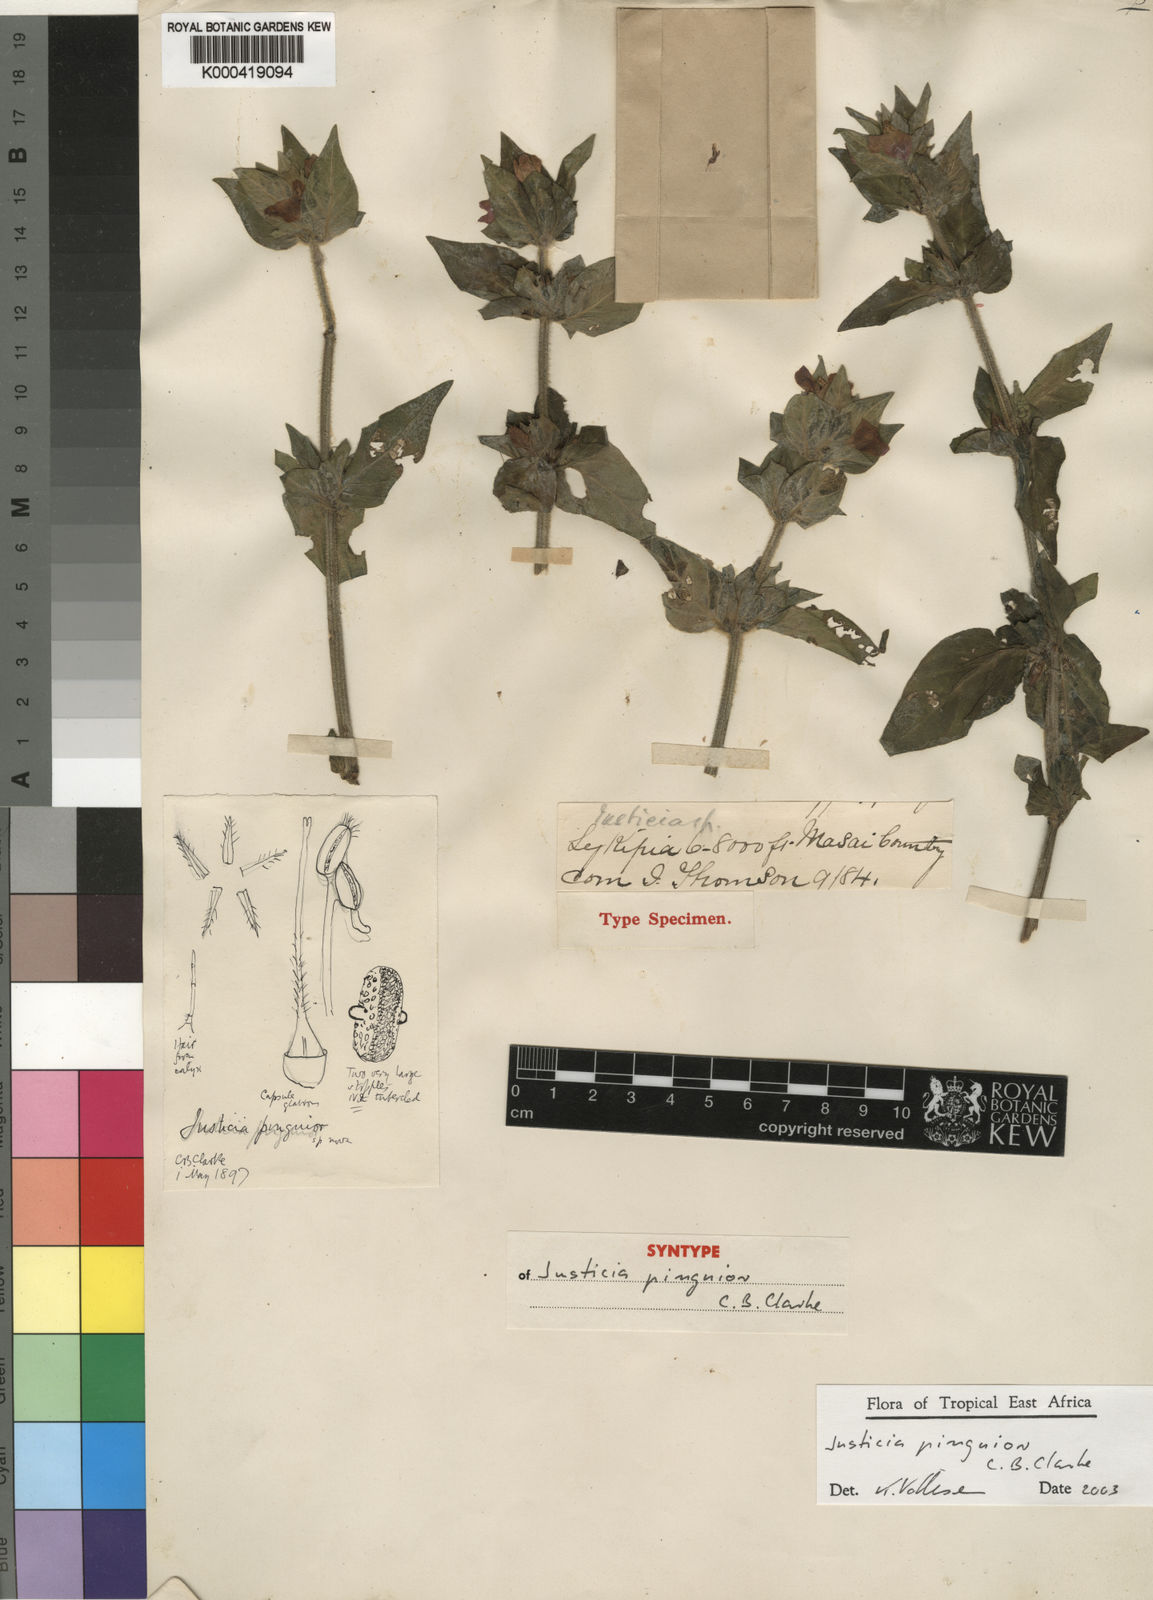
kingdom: Plantae
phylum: Tracheophyta
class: Magnoliopsida
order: Lamiales
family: Acanthaceae
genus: Justicia
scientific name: Justicia pinguior
